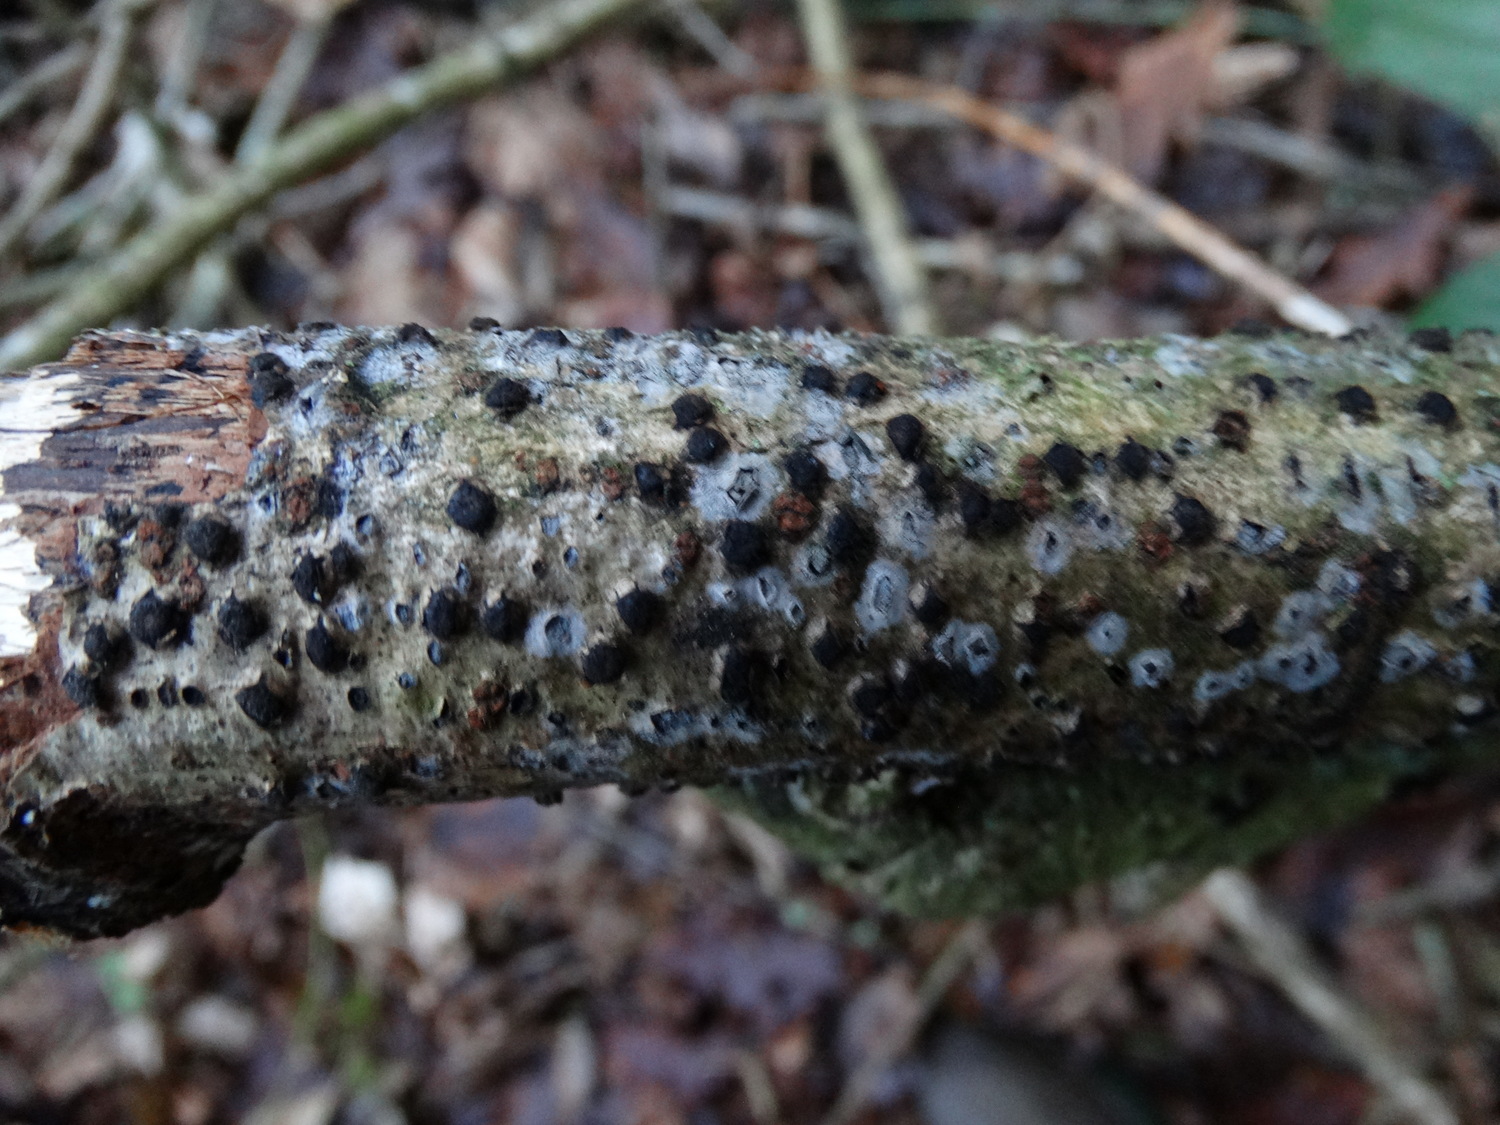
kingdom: Fungi
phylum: Ascomycota
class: Sordariomycetes
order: Xylariales
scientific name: Xylariales
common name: stødsvampordenen
